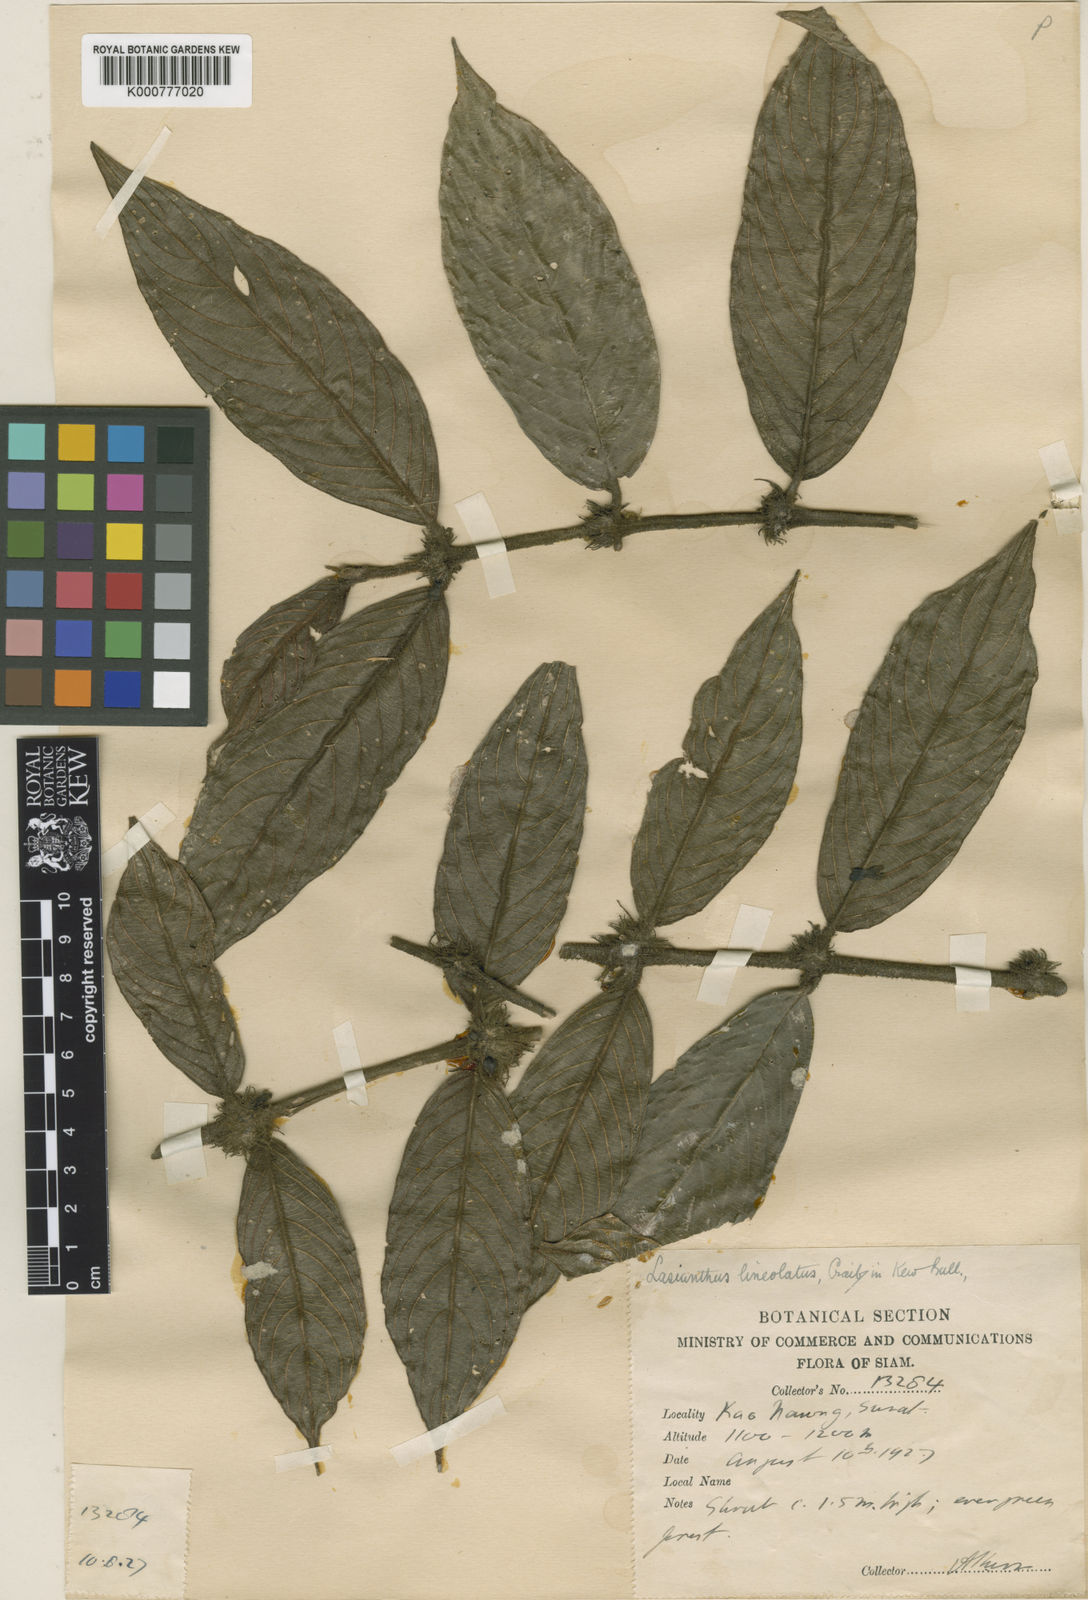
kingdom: Plantae
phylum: Tracheophyta
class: Magnoliopsida
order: Gentianales
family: Rubiaceae
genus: Lasianthus
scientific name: Lasianthus lineolatus
